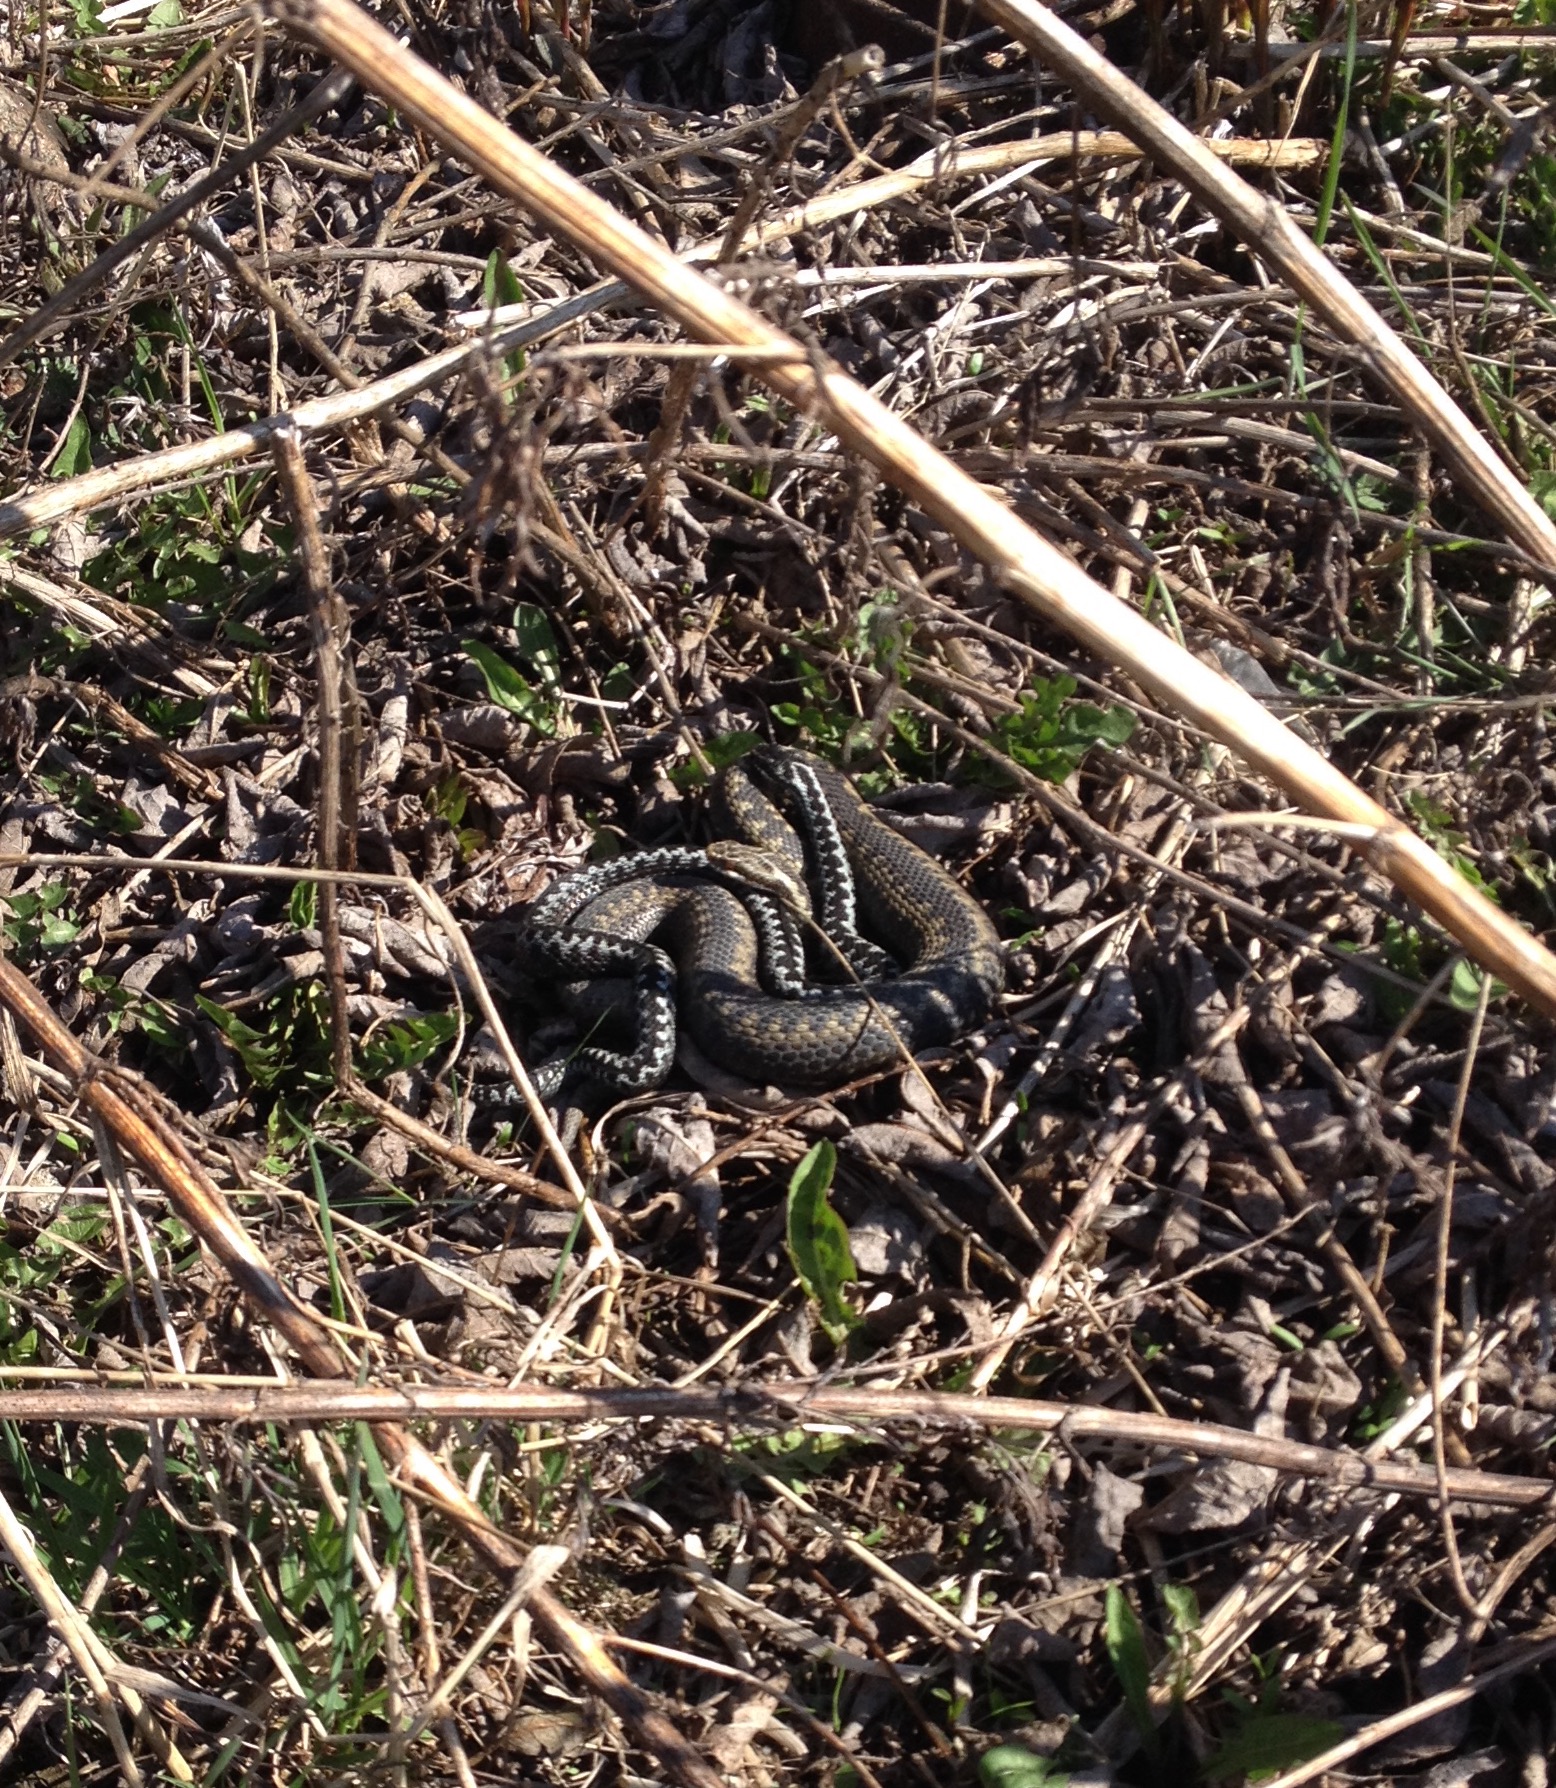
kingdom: Animalia
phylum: Chordata
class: Squamata
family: Viperidae
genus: Vipera
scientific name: Vipera berus
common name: Adder
